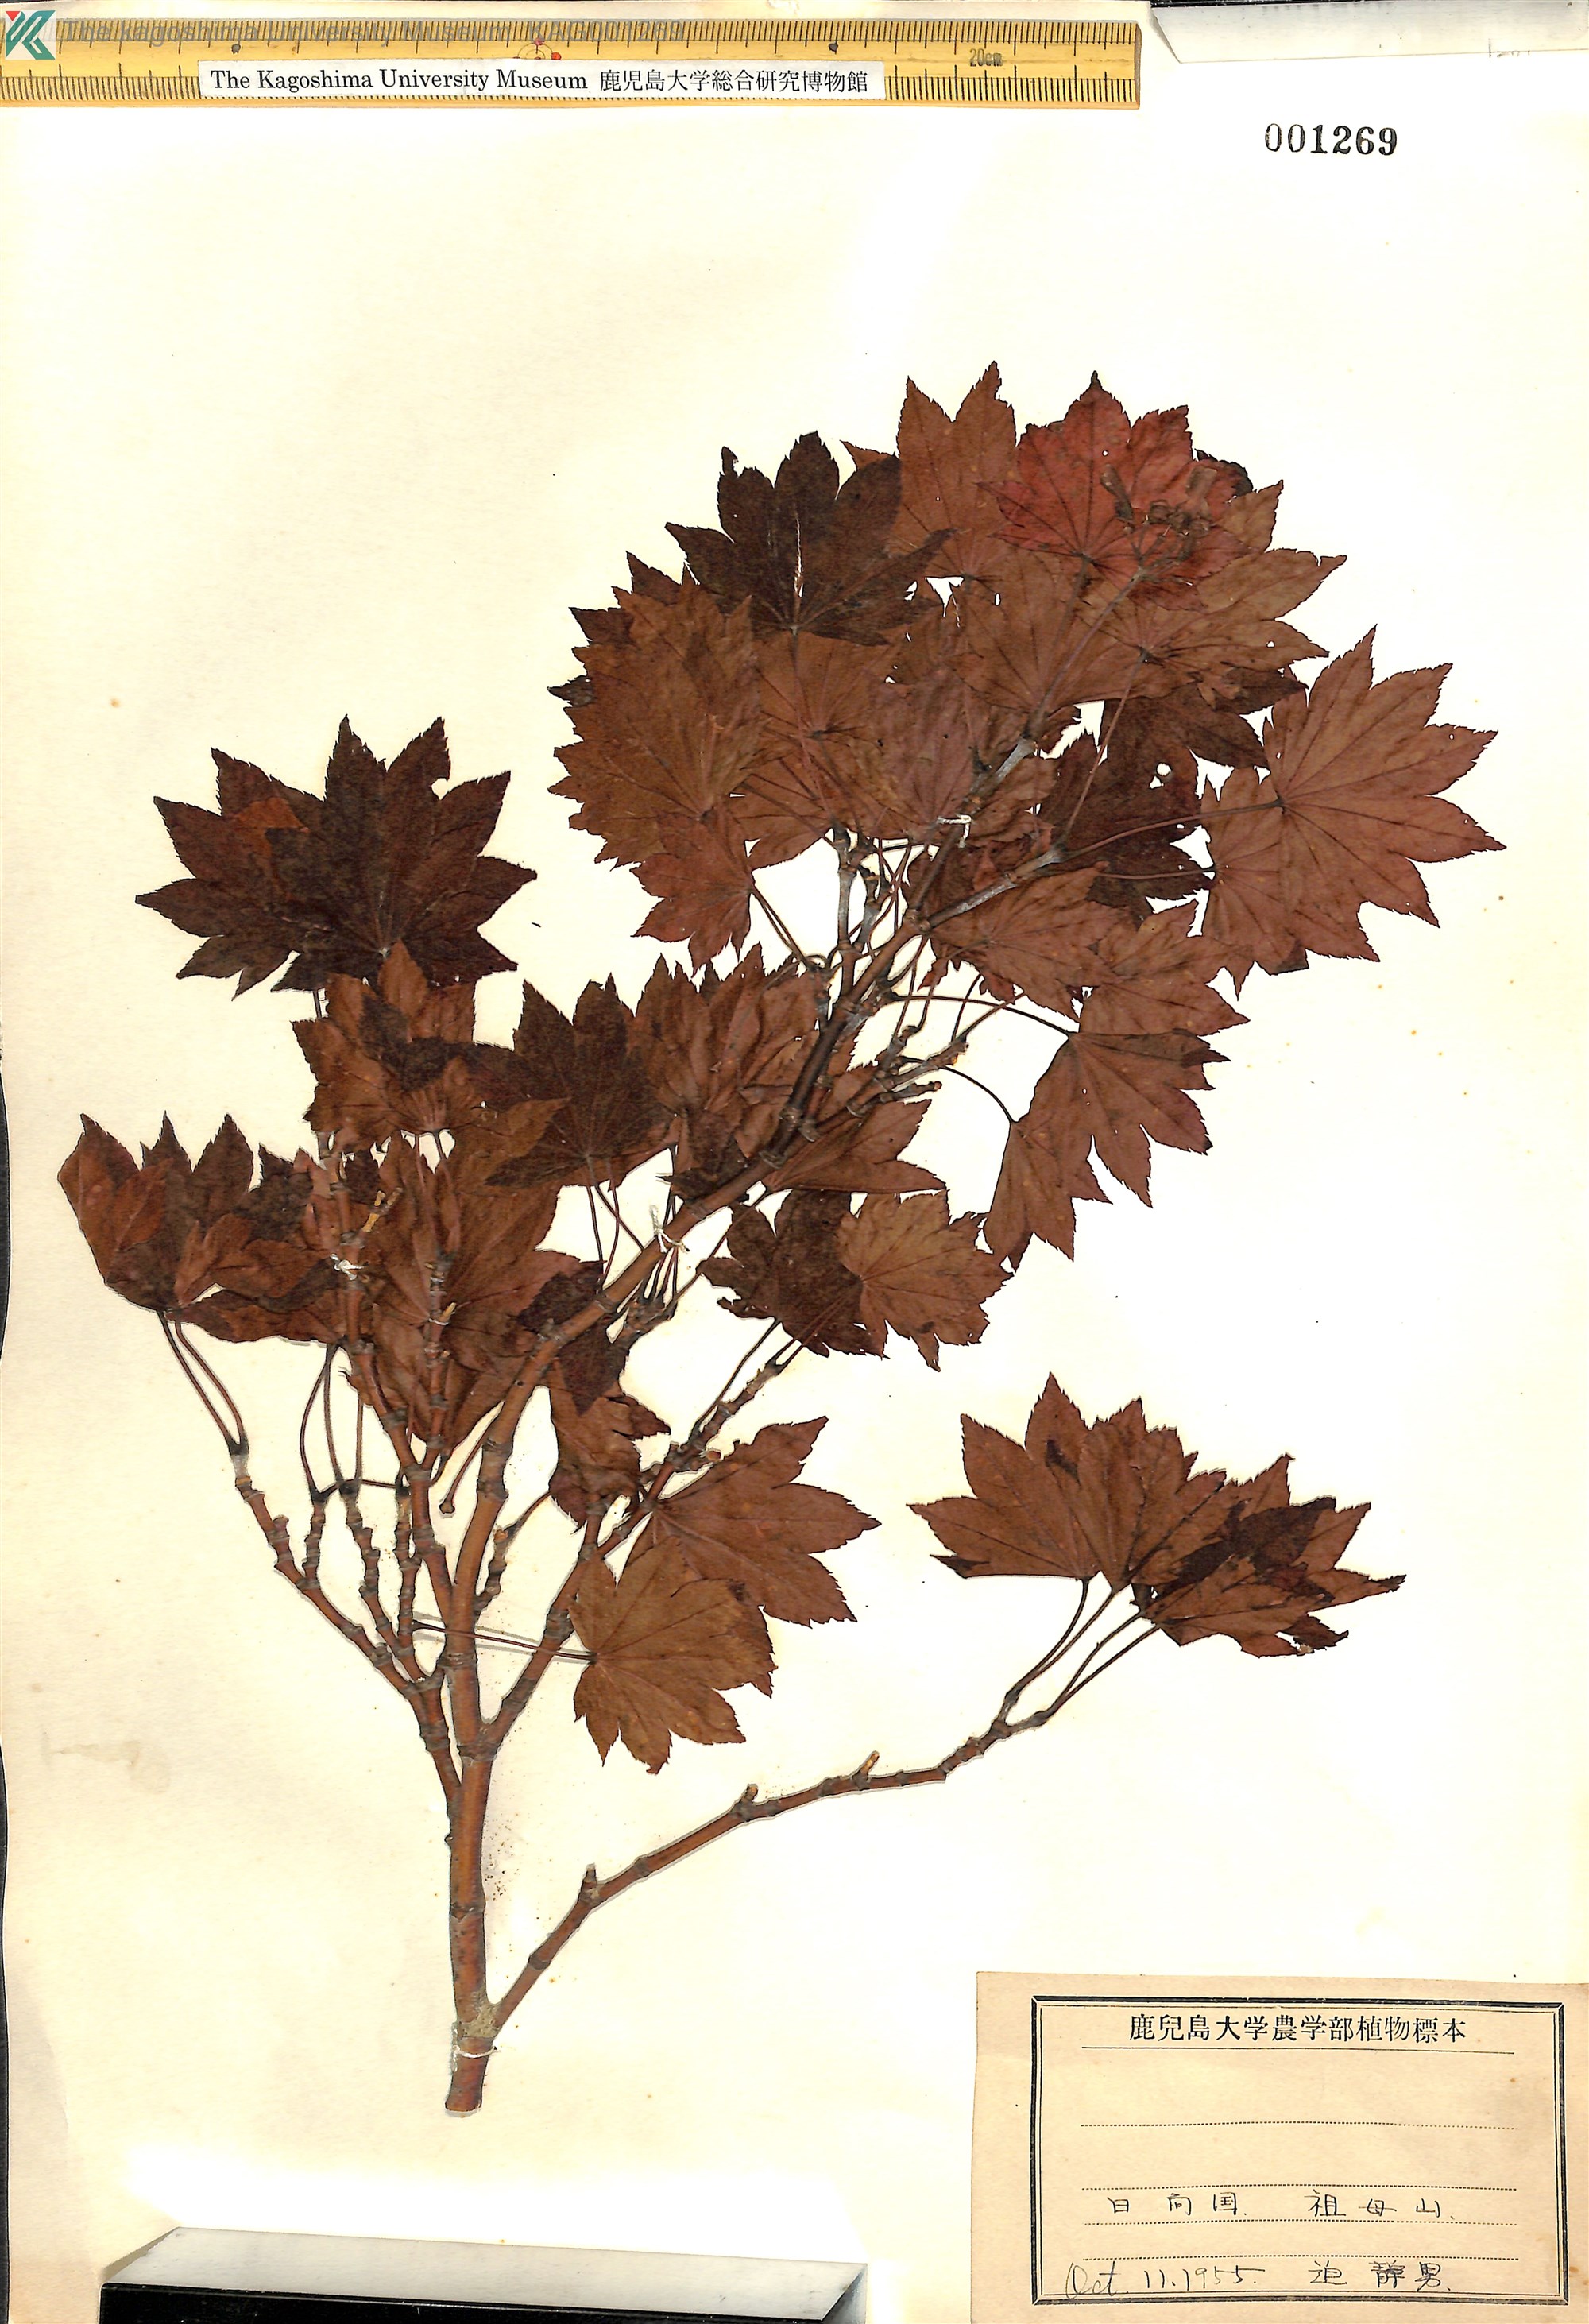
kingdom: Plantae
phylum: Tracheophyta
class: Magnoliopsida
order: Sapindales
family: Sapindaceae
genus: Acer
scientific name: Acer sieboldianum
